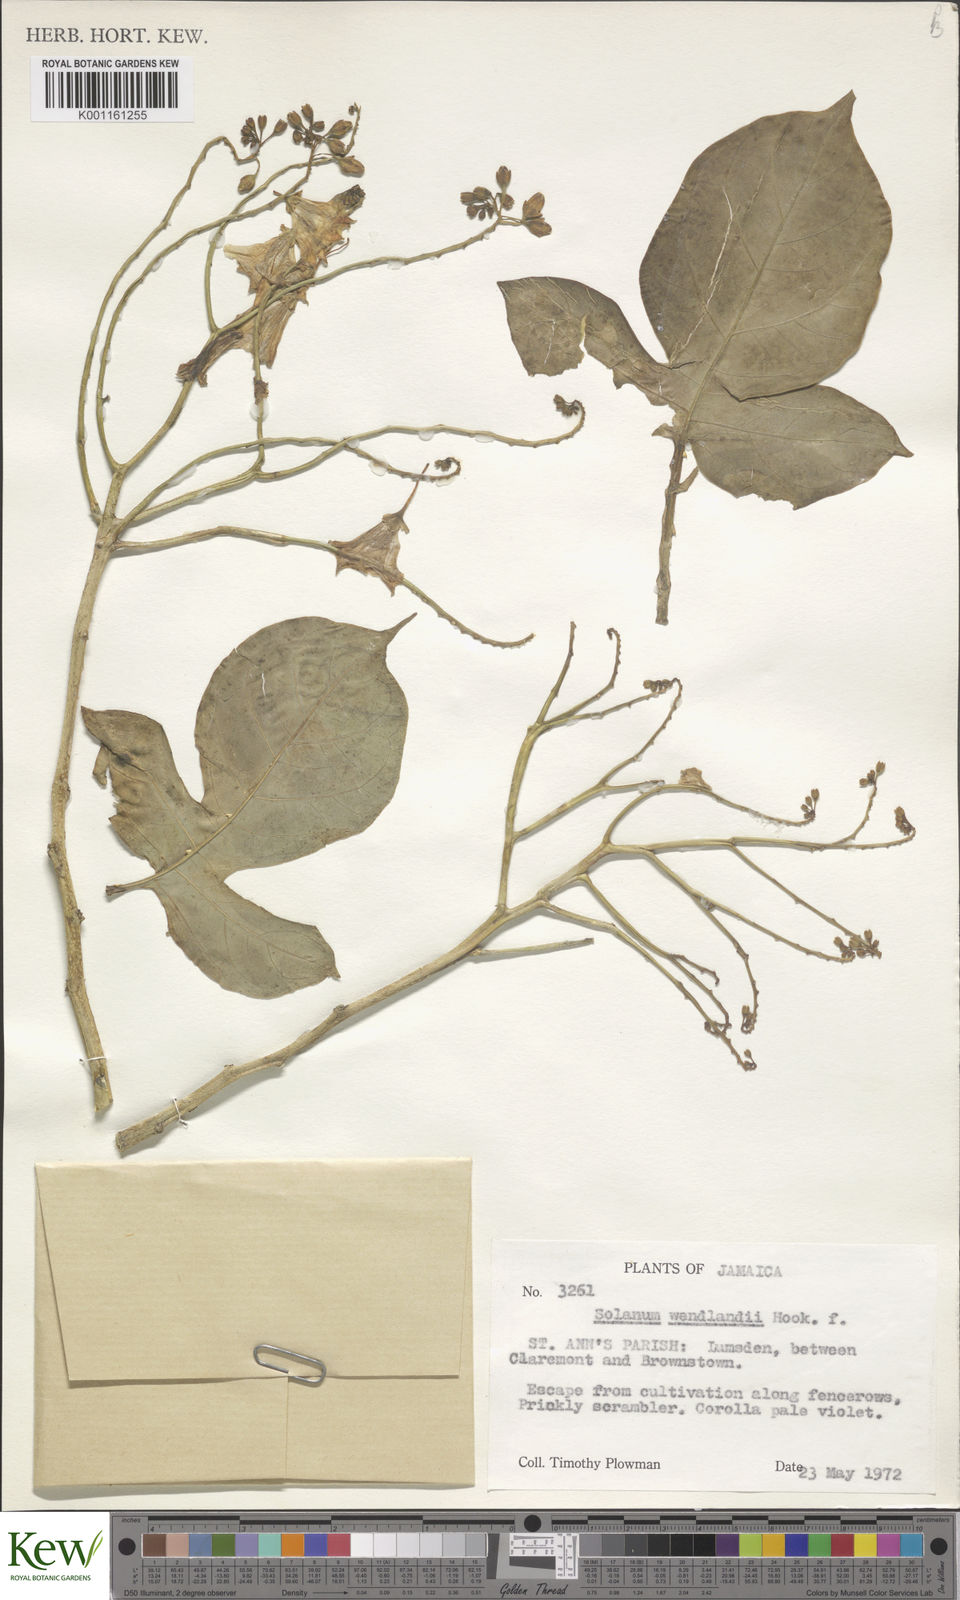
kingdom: Plantae
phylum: Tracheophyta
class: Magnoliopsida
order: Solanales
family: Solanaceae
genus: Solanum
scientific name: Solanum wendlandii
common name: Costa rican nightshade
